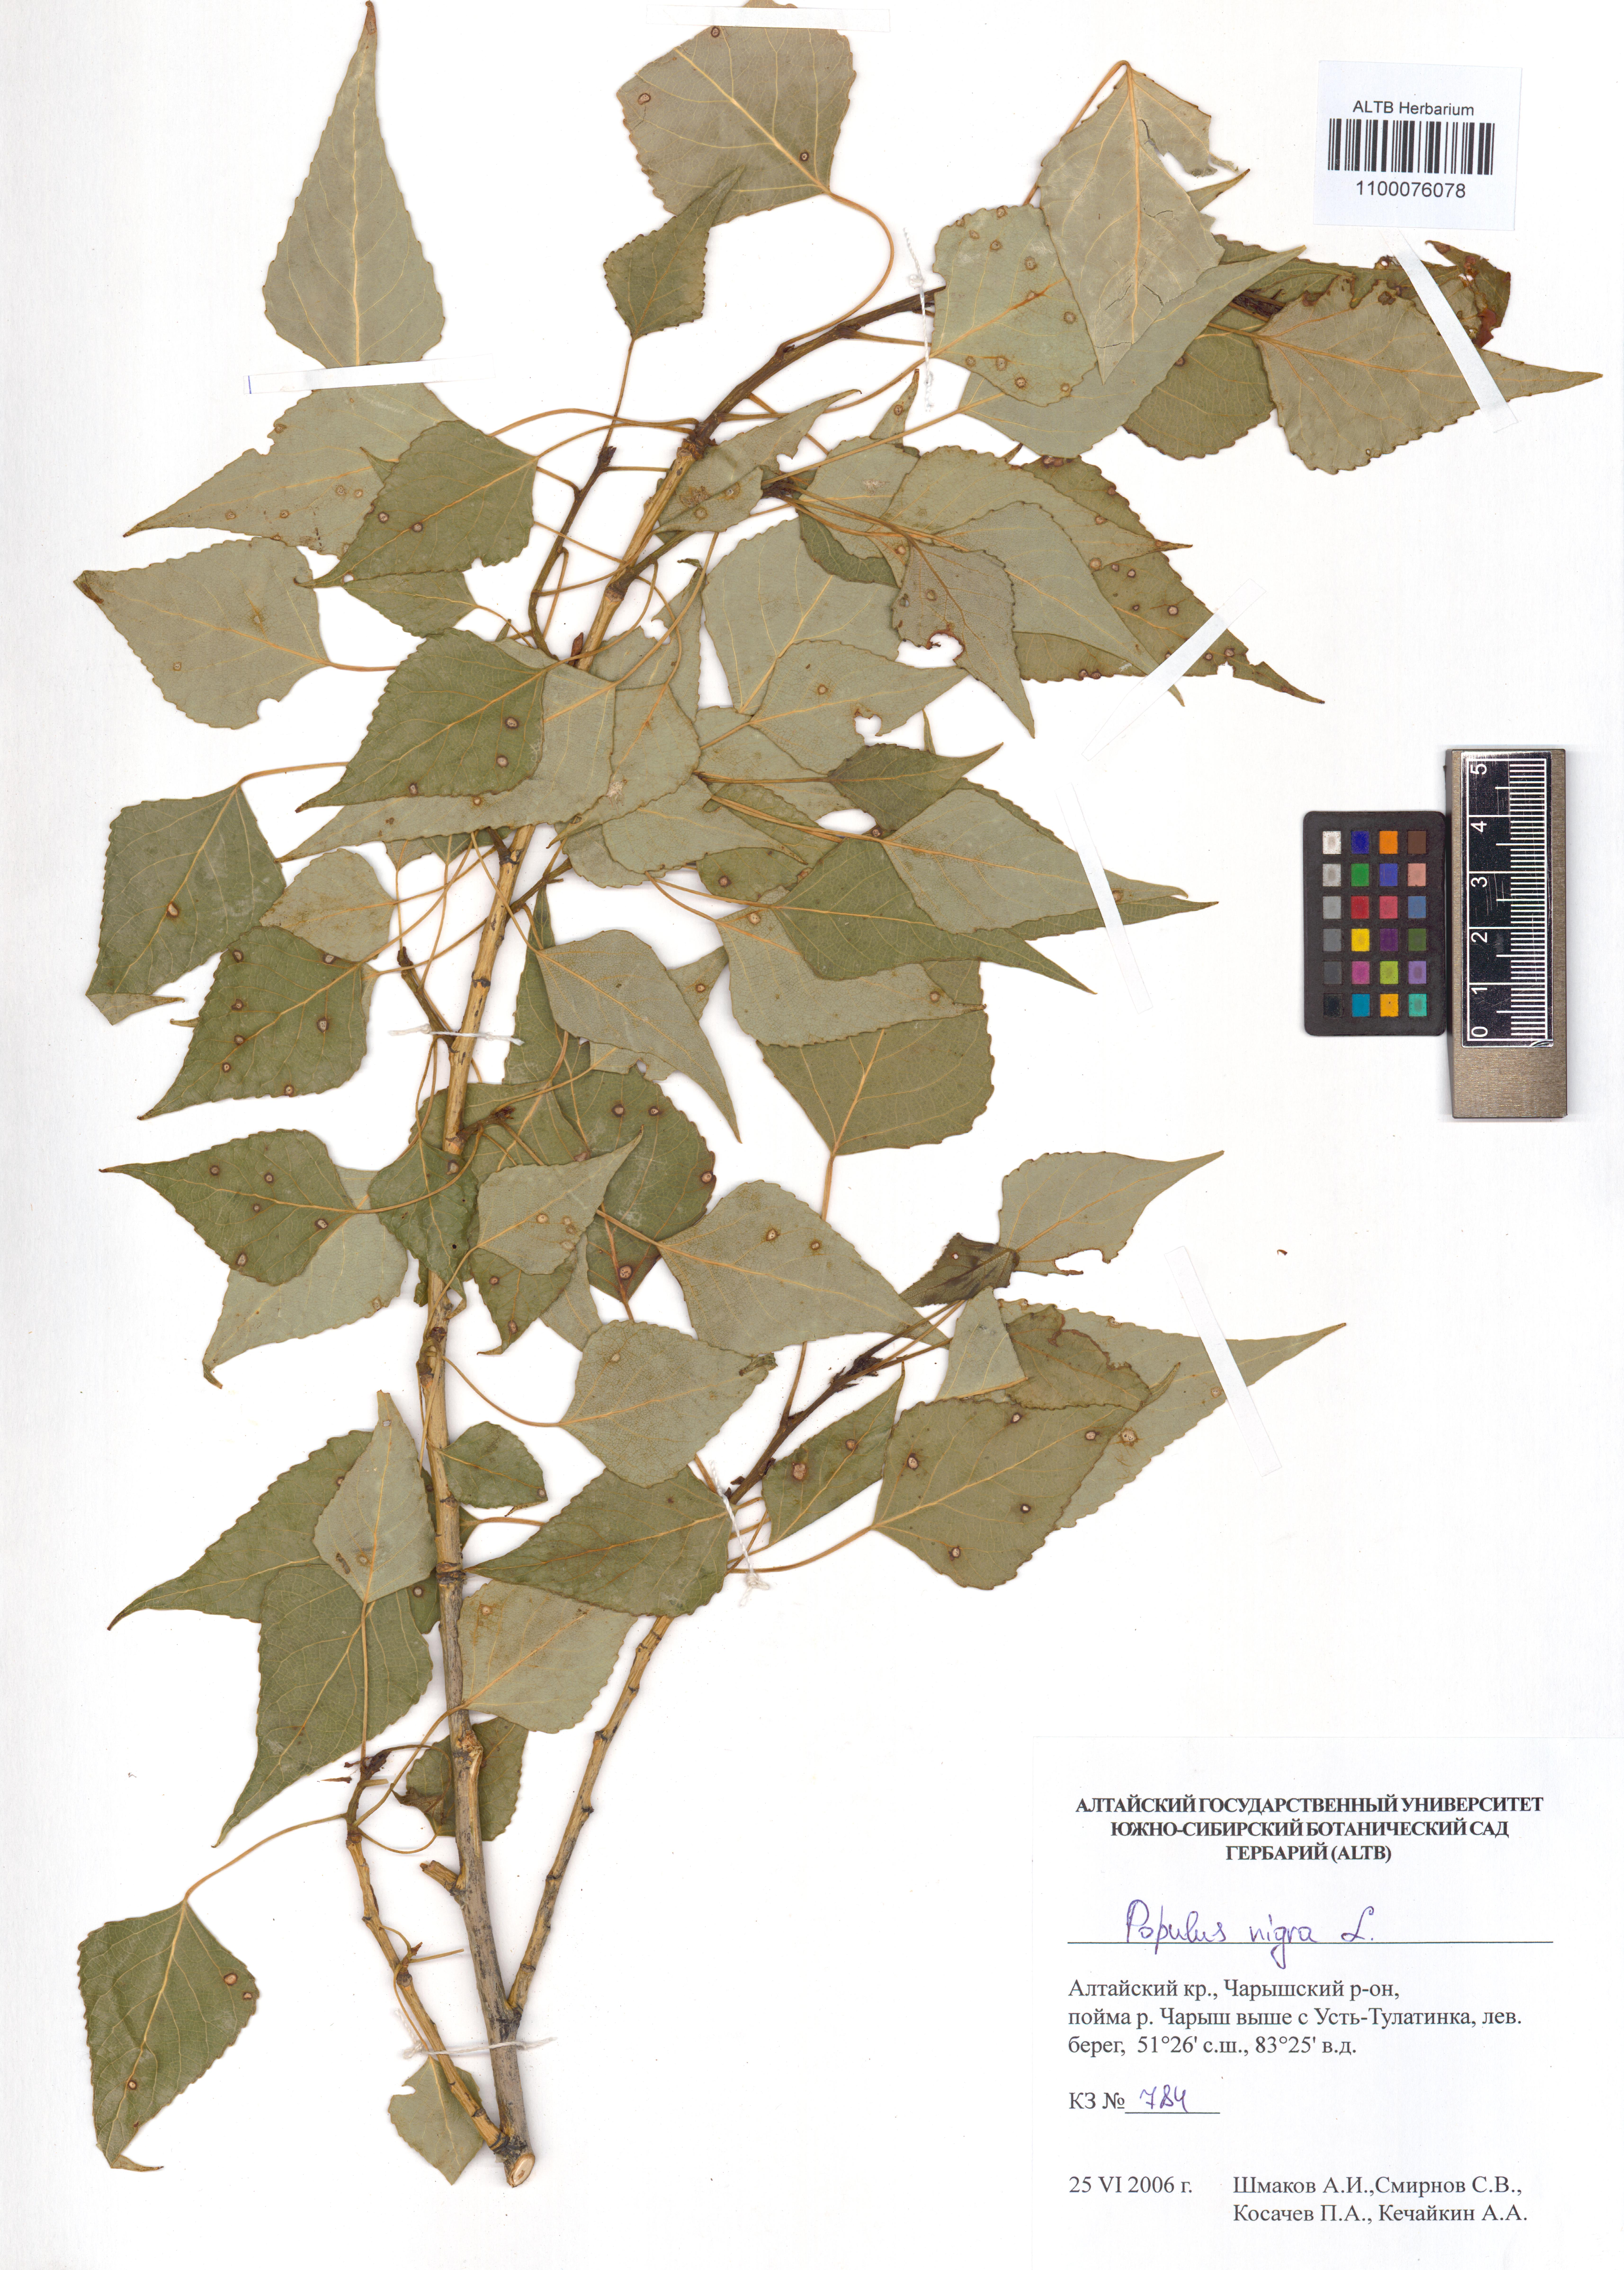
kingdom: Plantae
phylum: Tracheophyta
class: Magnoliopsida
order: Malpighiales
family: Salicaceae
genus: Populus
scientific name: Populus nigra
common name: Black poplar
